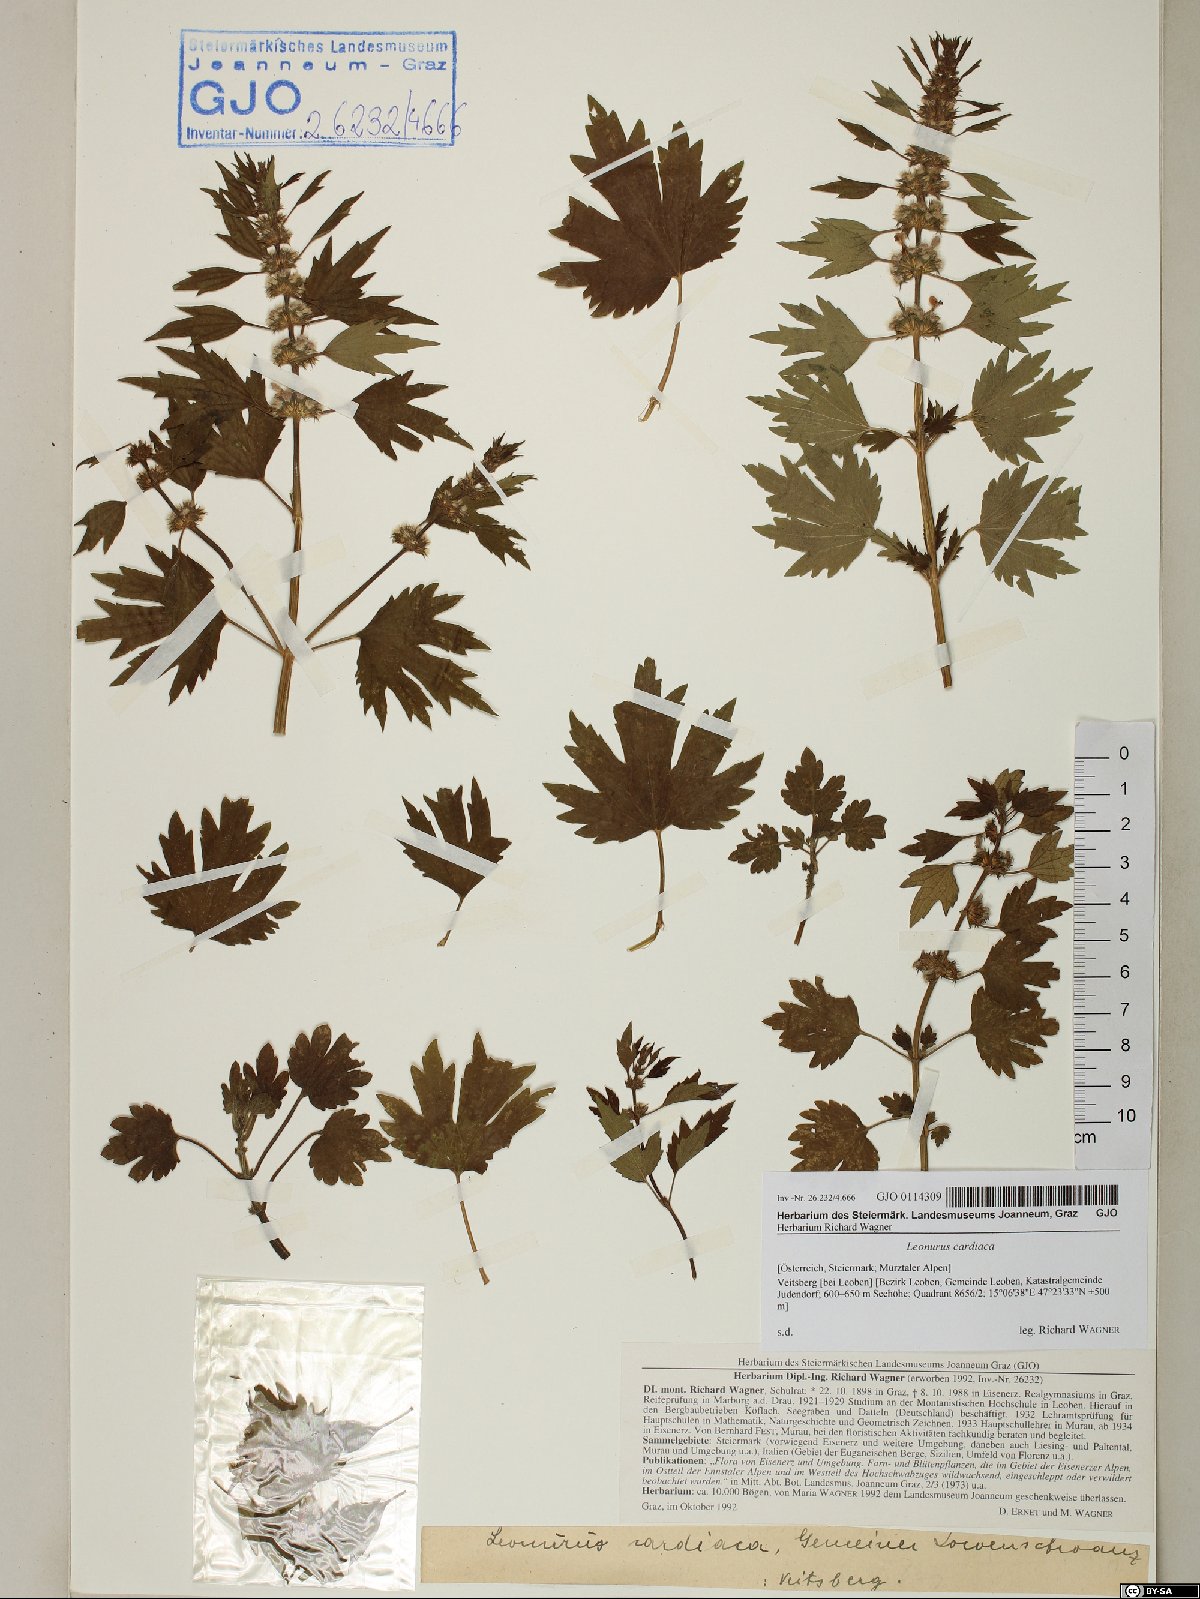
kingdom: Plantae
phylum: Tracheophyta
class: Magnoliopsida
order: Lamiales
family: Lamiaceae
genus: Leonurus
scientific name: Leonurus cardiaca
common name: Motherwort
